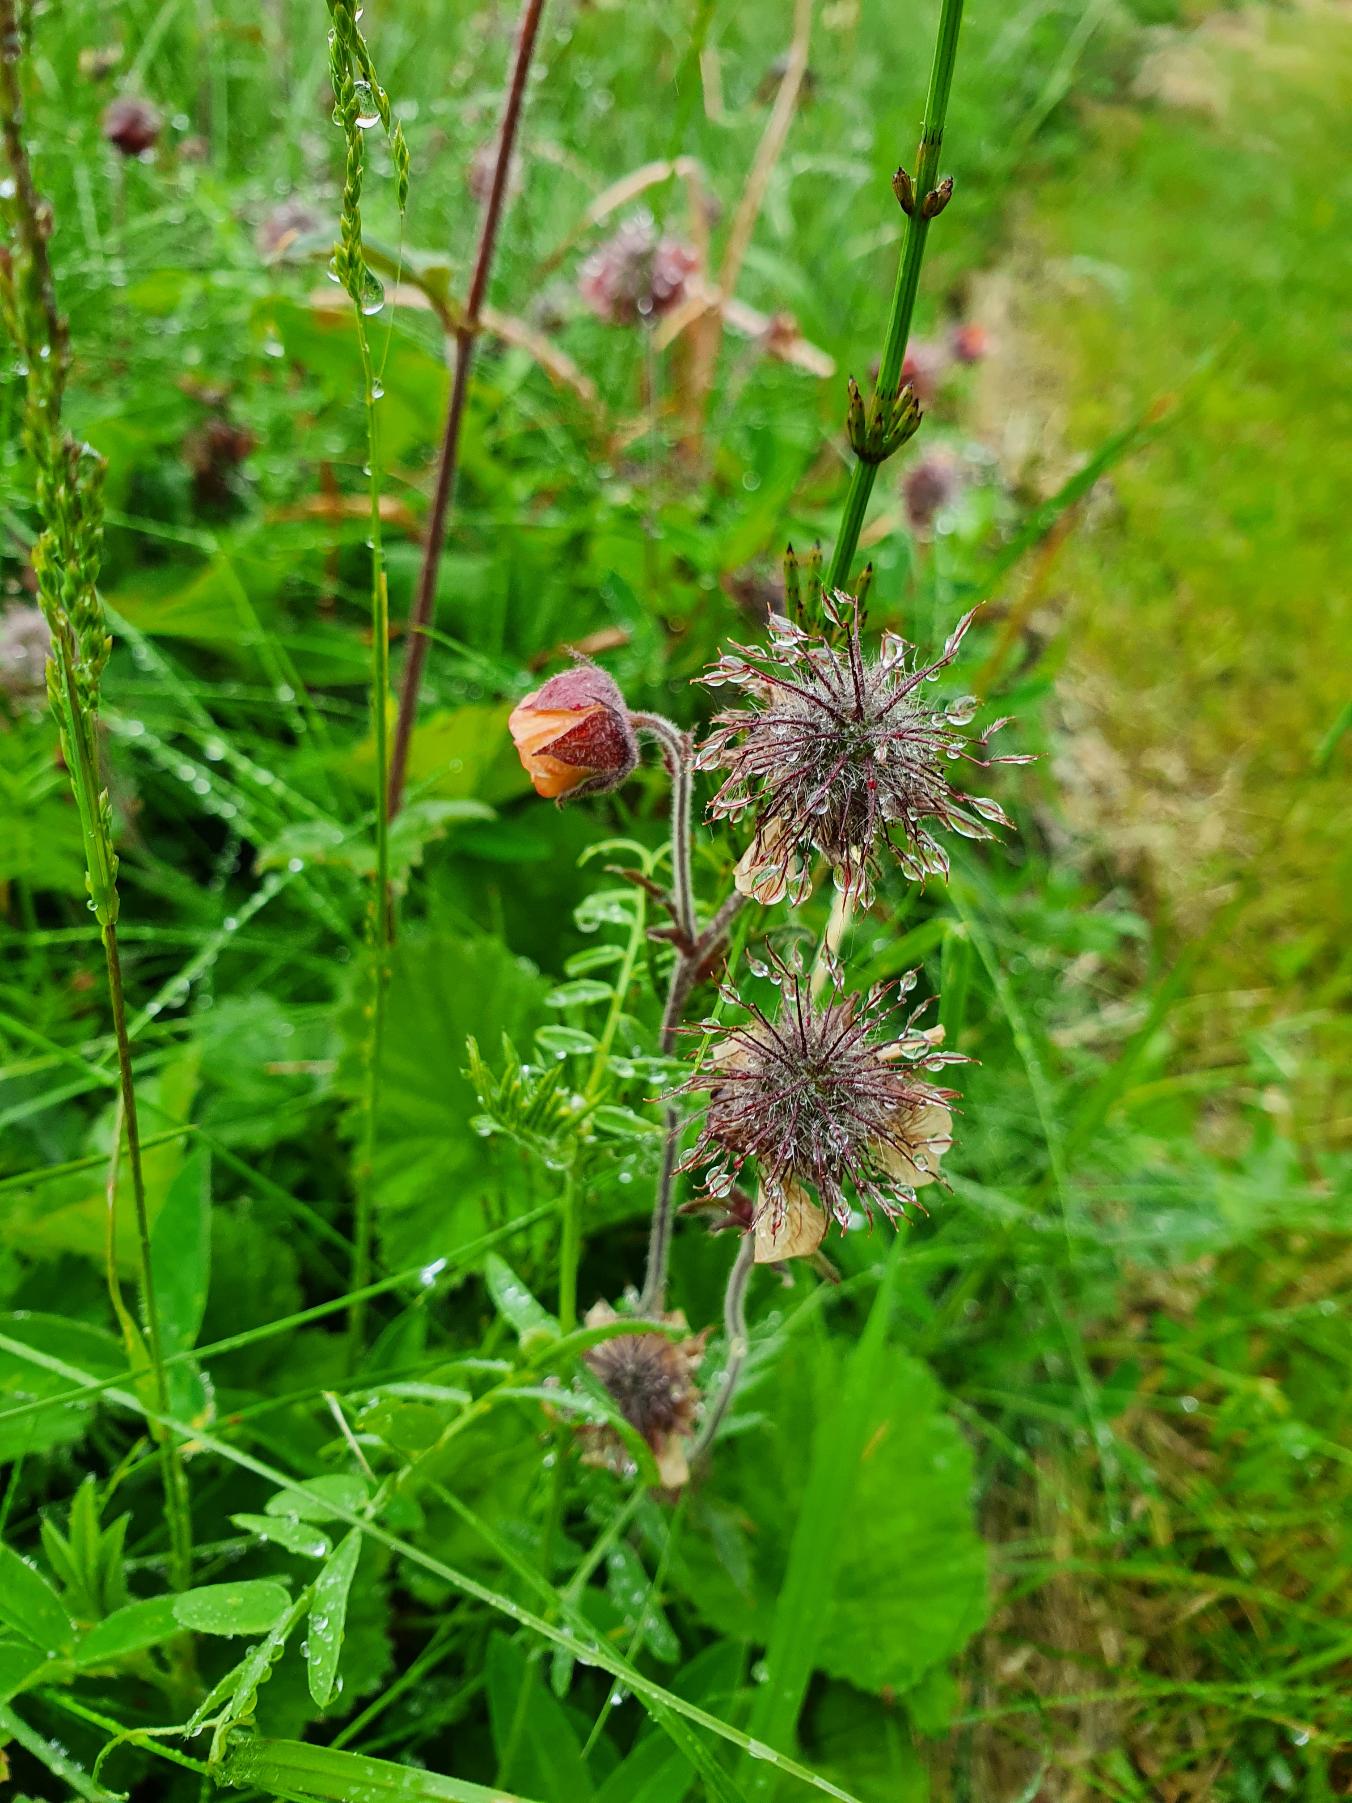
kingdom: Plantae
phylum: Tracheophyta
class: Magnoliopsida
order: Rosales
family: Rosaceae
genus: Geum
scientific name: Geum rivale
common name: Eng-nellikerod
